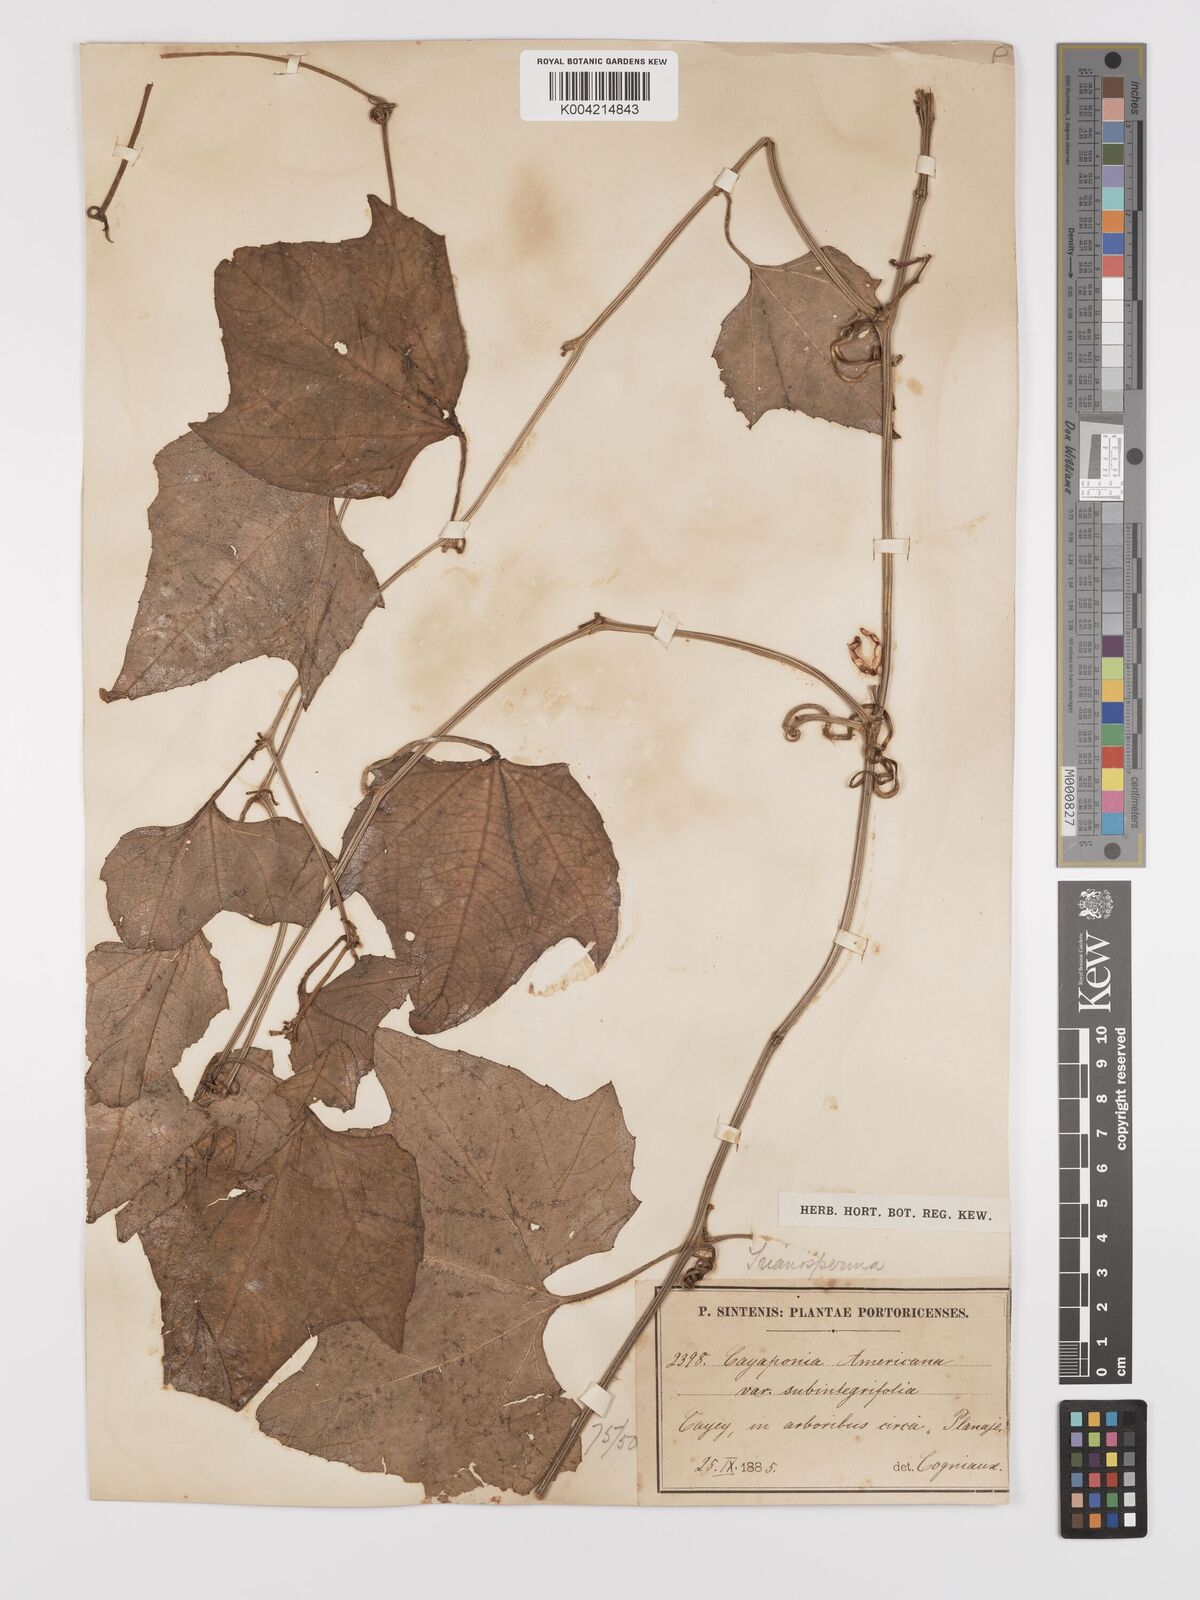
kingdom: Plantae
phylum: Tracheophyta
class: Magnoliopsida
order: Cucurbitales
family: Cucurbitaceae
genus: Cayaponia
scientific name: Cayaponia americana
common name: American melonleaf
